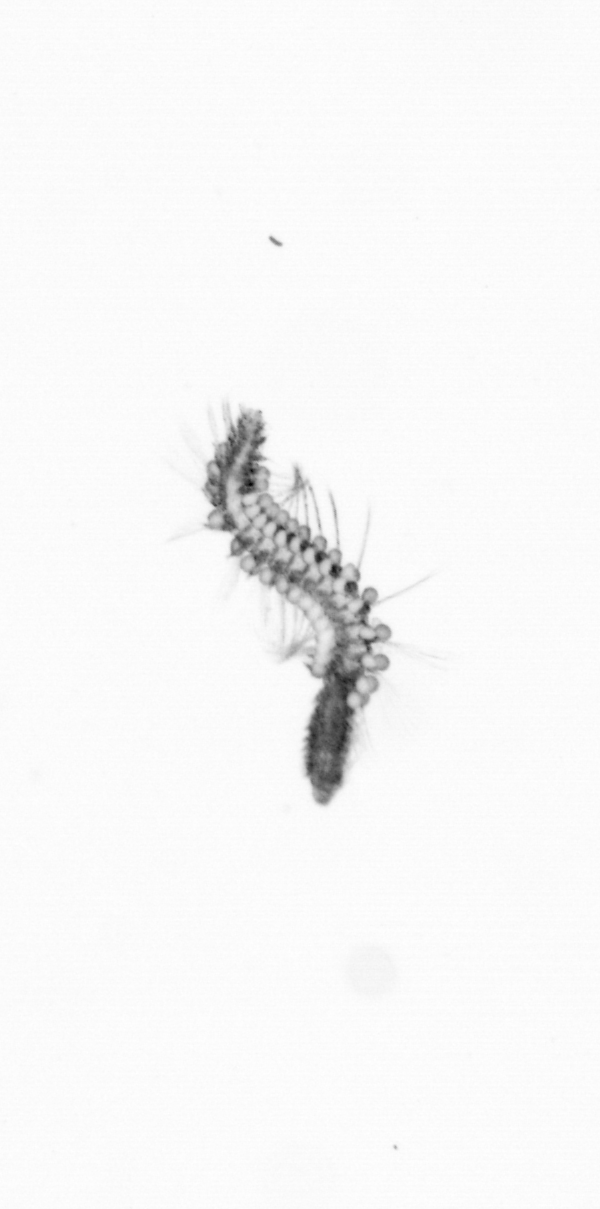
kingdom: Animalia
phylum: Annelida
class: Polychaeta
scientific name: Polychaeta
